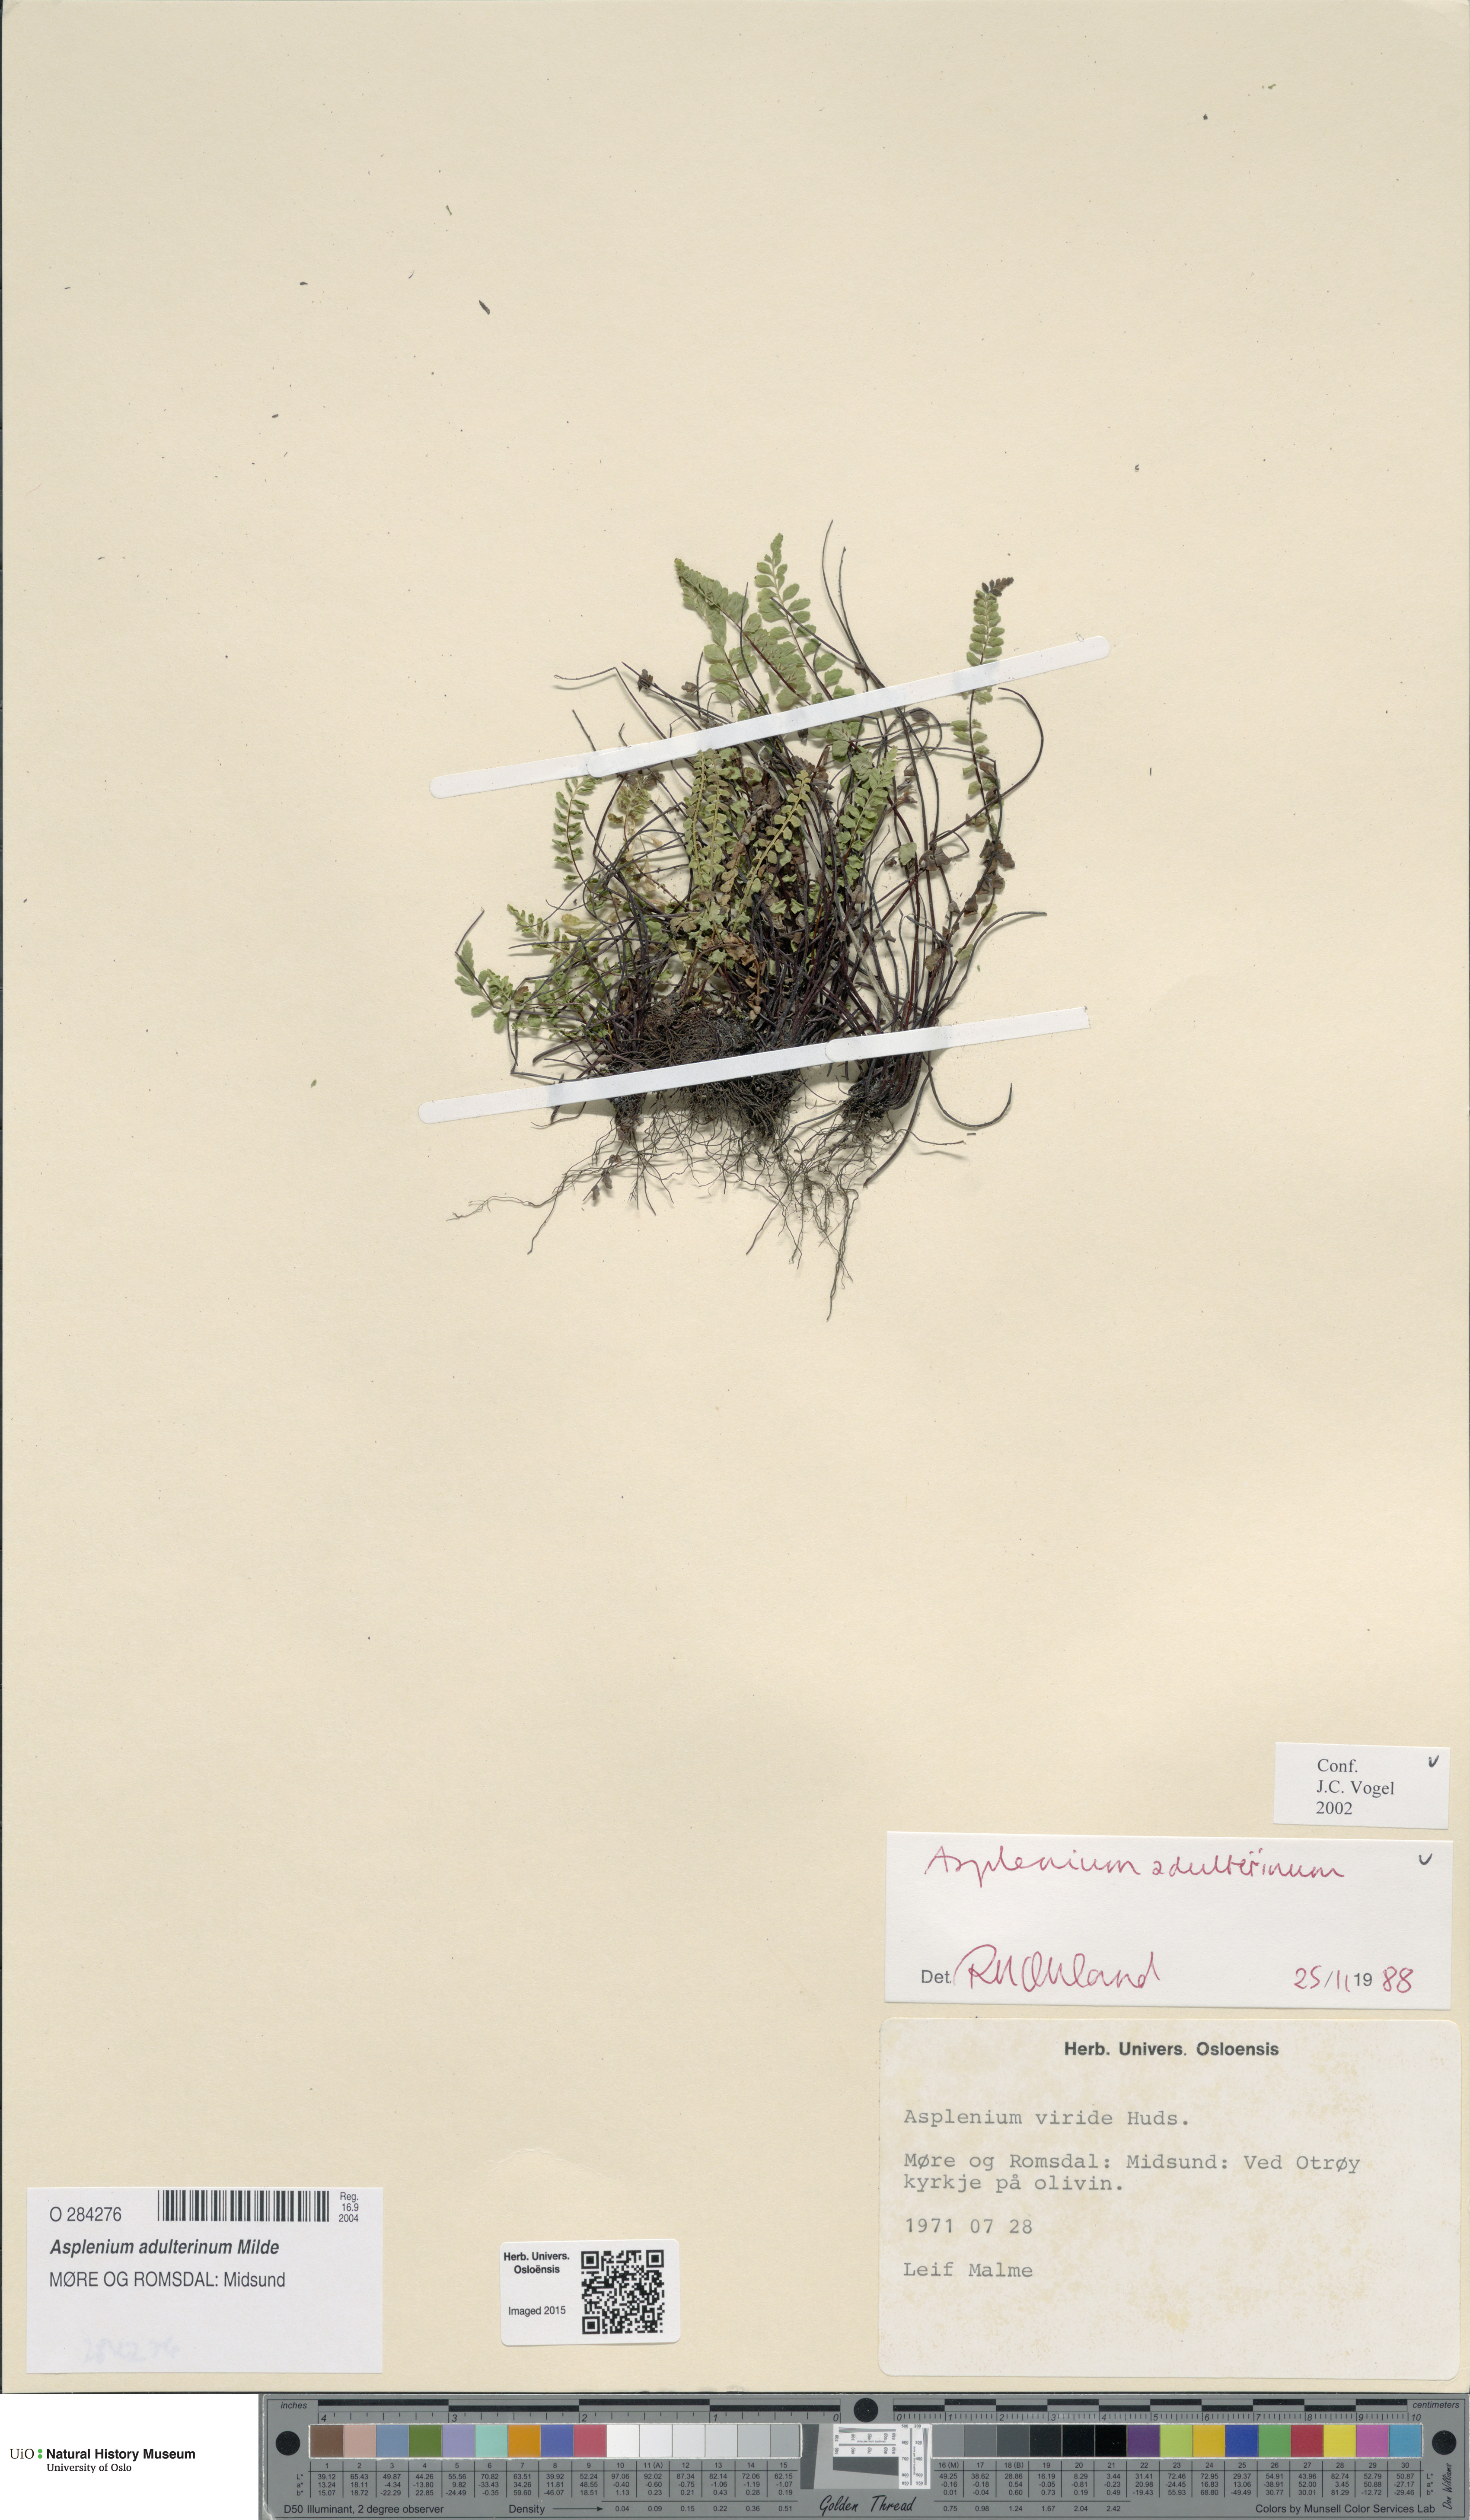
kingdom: Plantae
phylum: Tracheophyta
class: Polypodiopsida
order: Polypodiales
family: Aspleniaceae
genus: Asplenium
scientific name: Asplenium adulterinum
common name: Adulterated spleenwort
